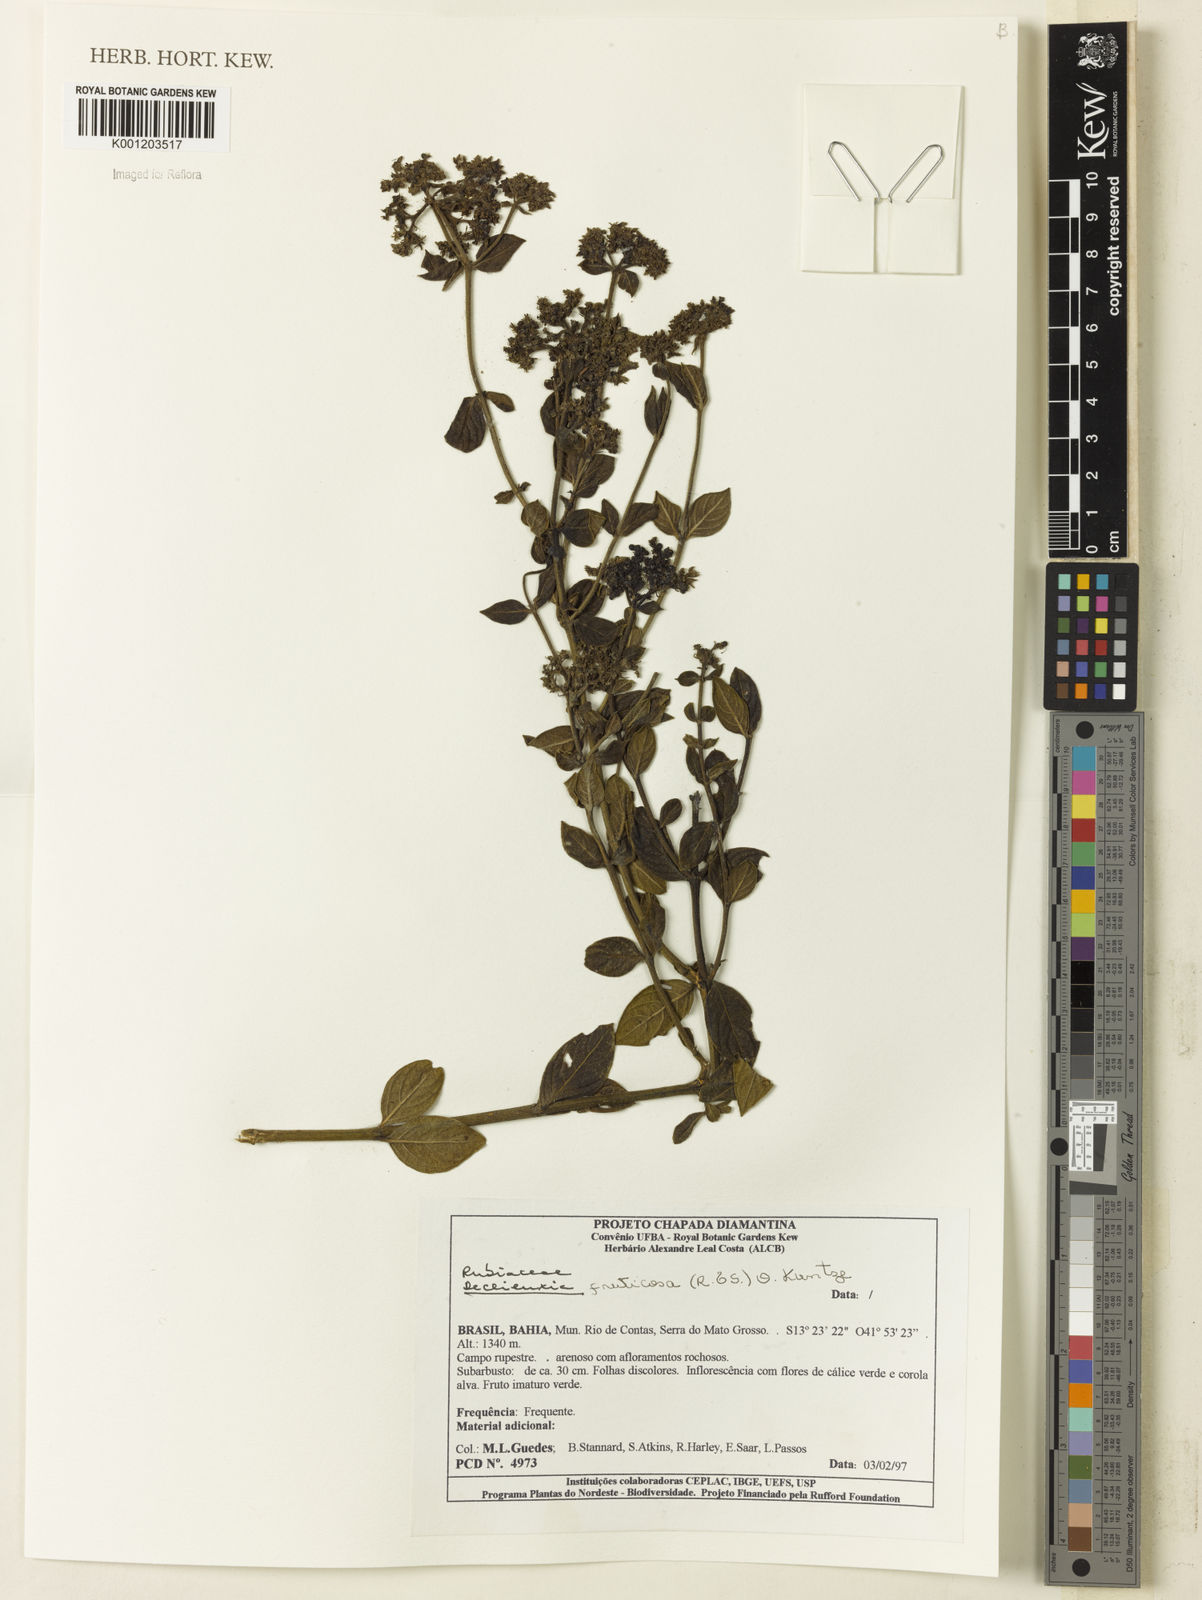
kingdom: Plantae
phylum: Tracheophyta
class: Magnoliopsida
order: Gentianales
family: Rubiaceae
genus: Declieuxia
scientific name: Declieuxia fruticosa
